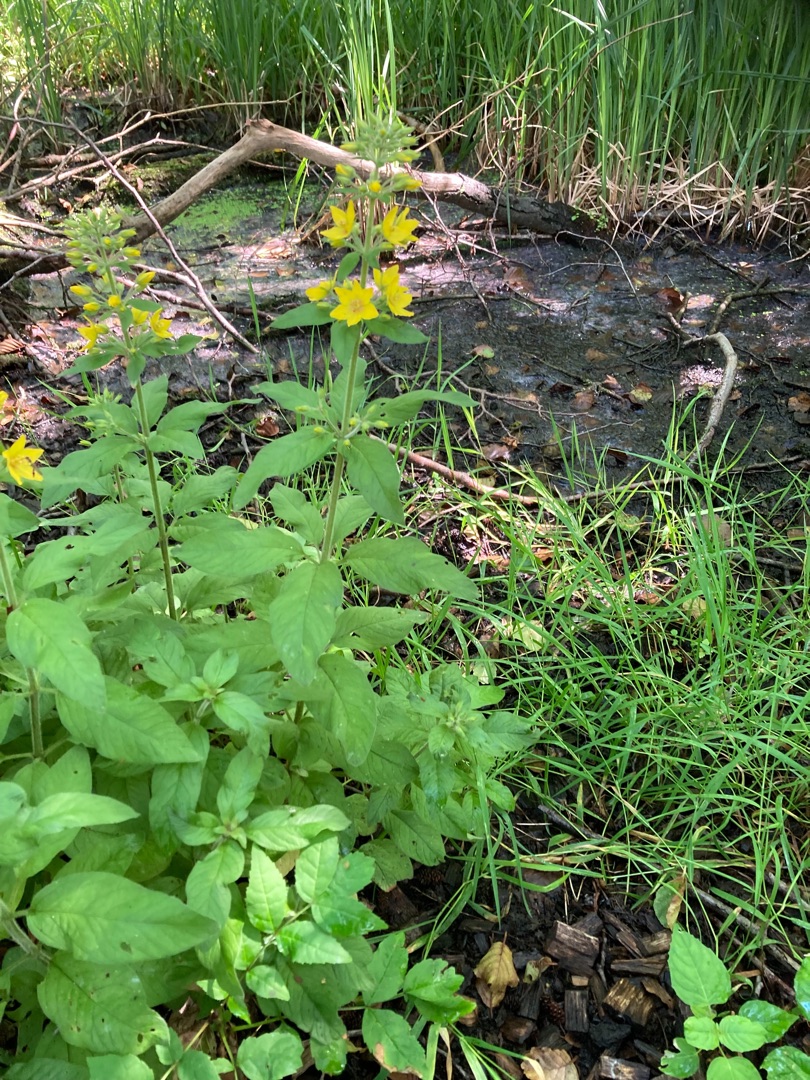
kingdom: Plantae
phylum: Tracheophyta
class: Magnoliopsida
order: Ericales
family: Primulaceae
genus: Lysimachia
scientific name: Lysimachia punctata
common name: Prikbladet fredløs
